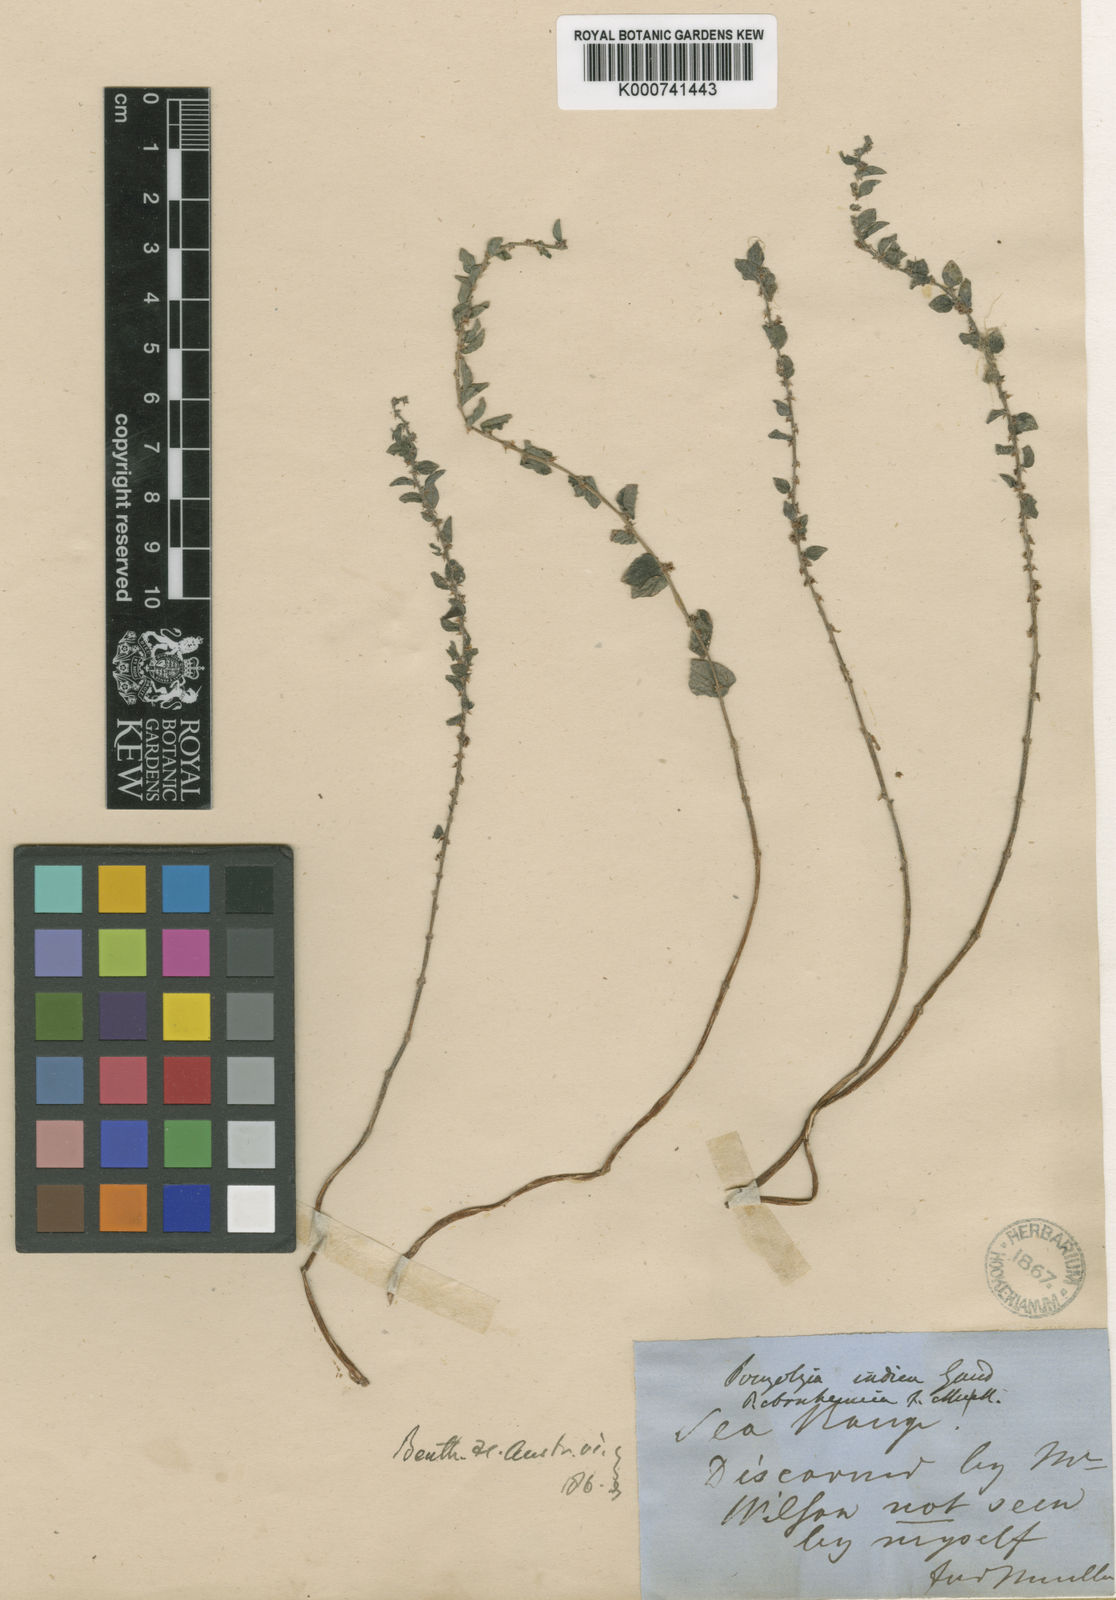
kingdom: Plantae
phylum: Tracheophyta
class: Magnoliopsida
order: Rosales
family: Urticaceae
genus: Pouzolzia
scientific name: Pouzolzia zeylanica
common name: Graceful pouzolzsbush
